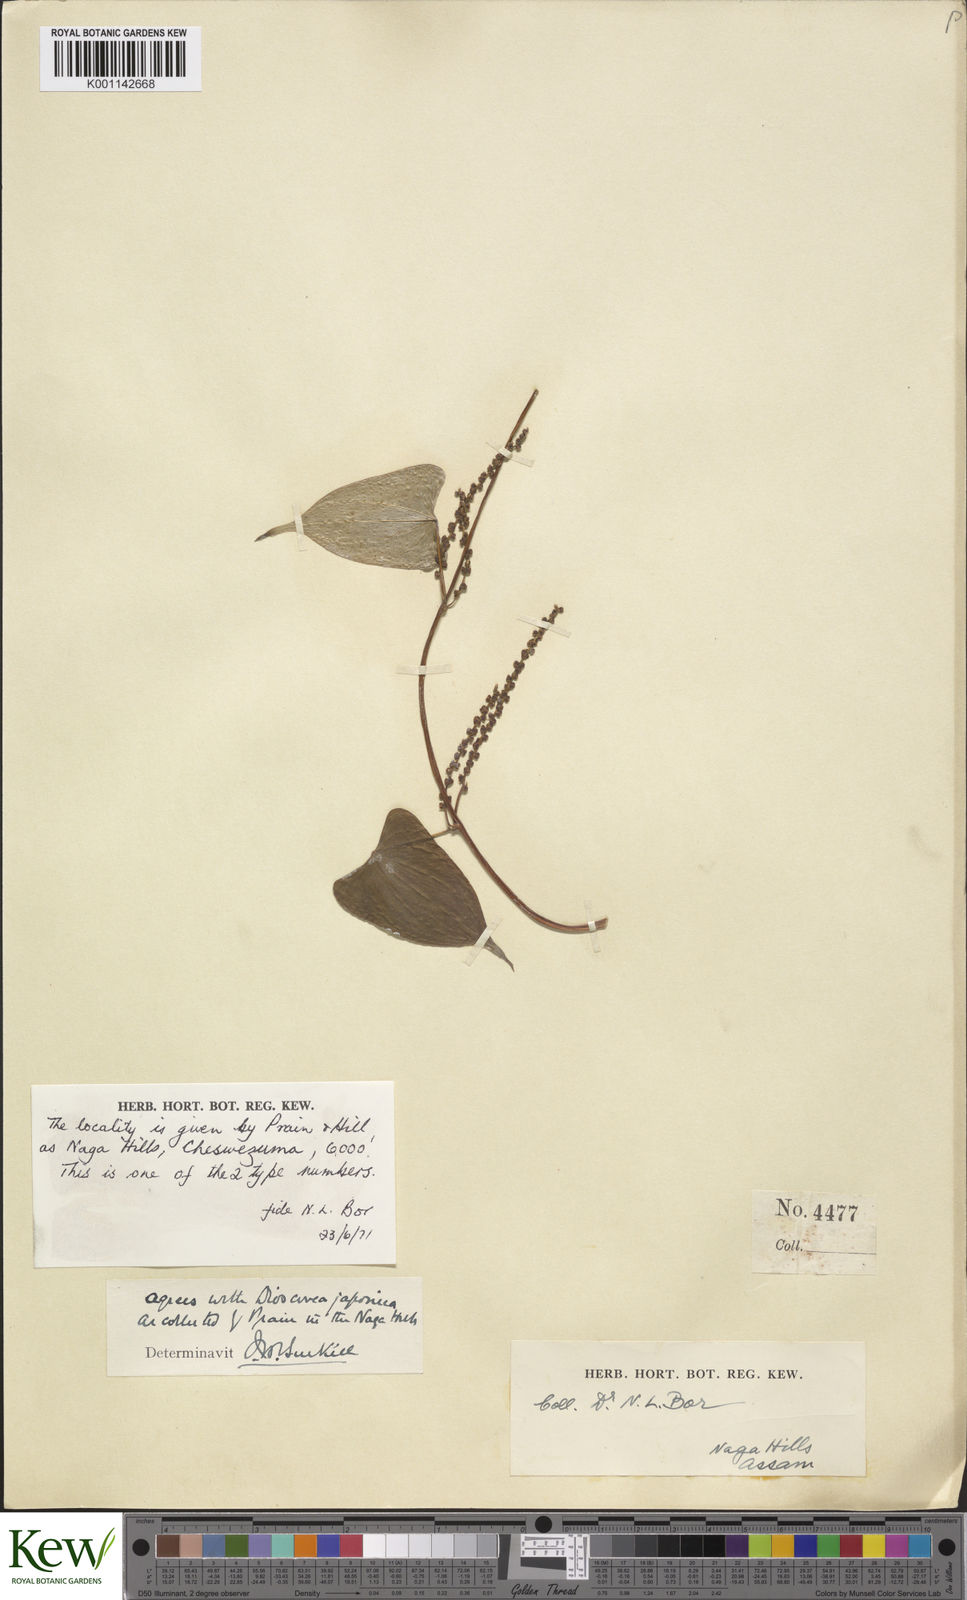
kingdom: Plantae
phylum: Tracheophyta
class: Liliopsida
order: Dioscoreales
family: Dioscoreaceae
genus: Dioscorea
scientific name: Dioscorea japonica
